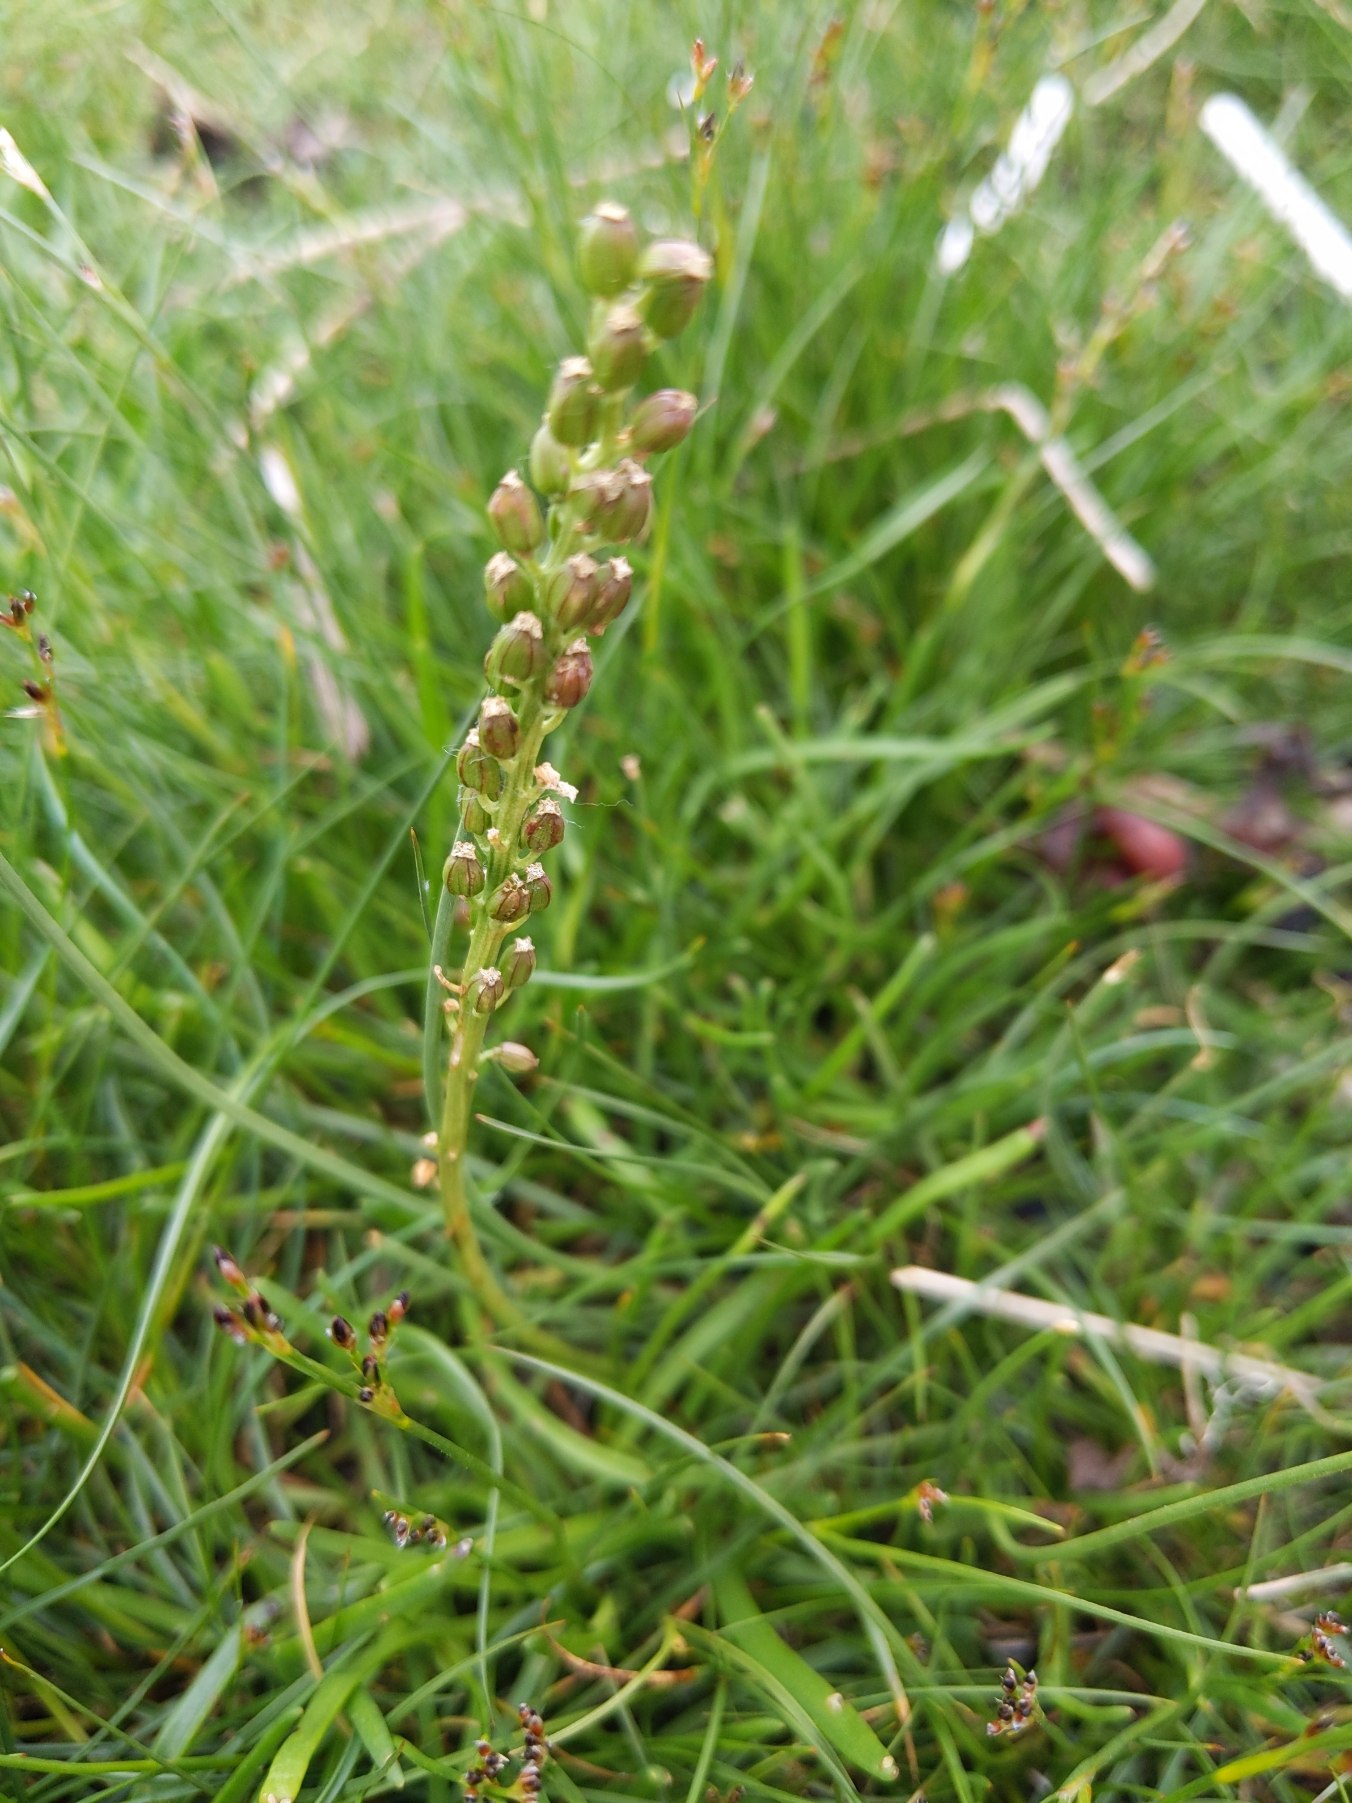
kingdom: Plantae
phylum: Tracheophyta
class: Liliopsida
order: Alismatales
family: Juncaginaceae
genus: Triglochin
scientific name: Triglochin maritima
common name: Strand-trehage
